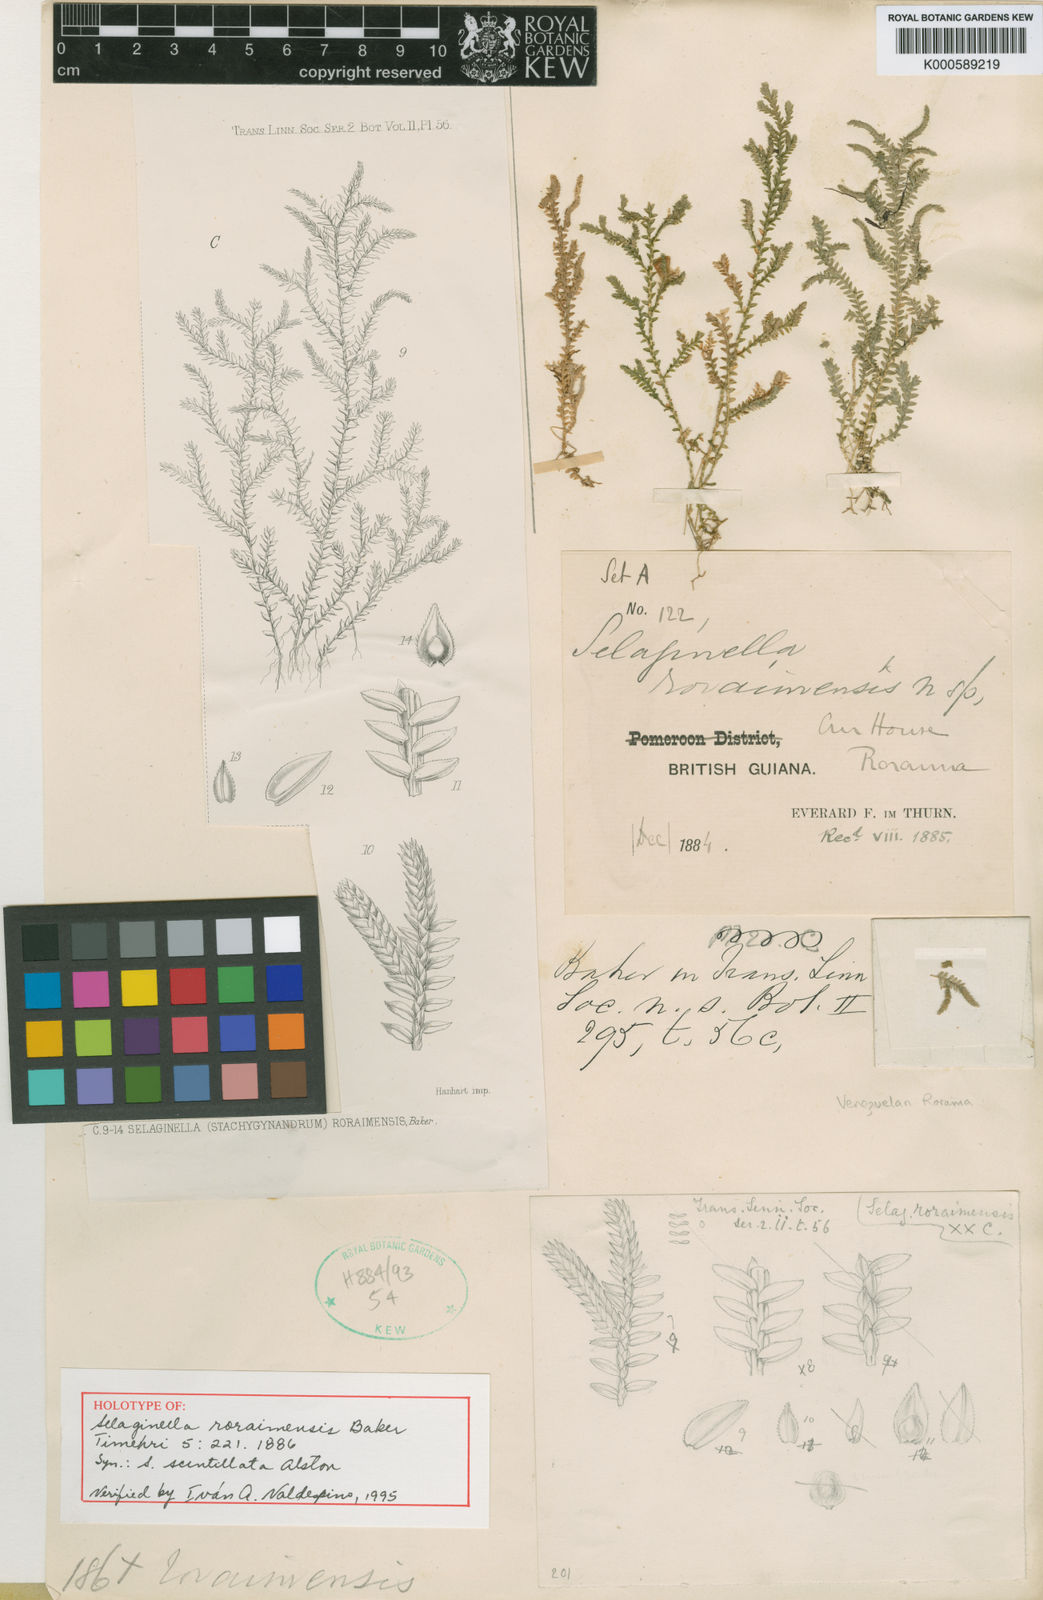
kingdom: Plantae
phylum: Tracheophyta
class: Lycopodiopsida
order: Selaginellales
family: Selaginellaceae
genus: Selaginella
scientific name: Selaginella roraimensis
